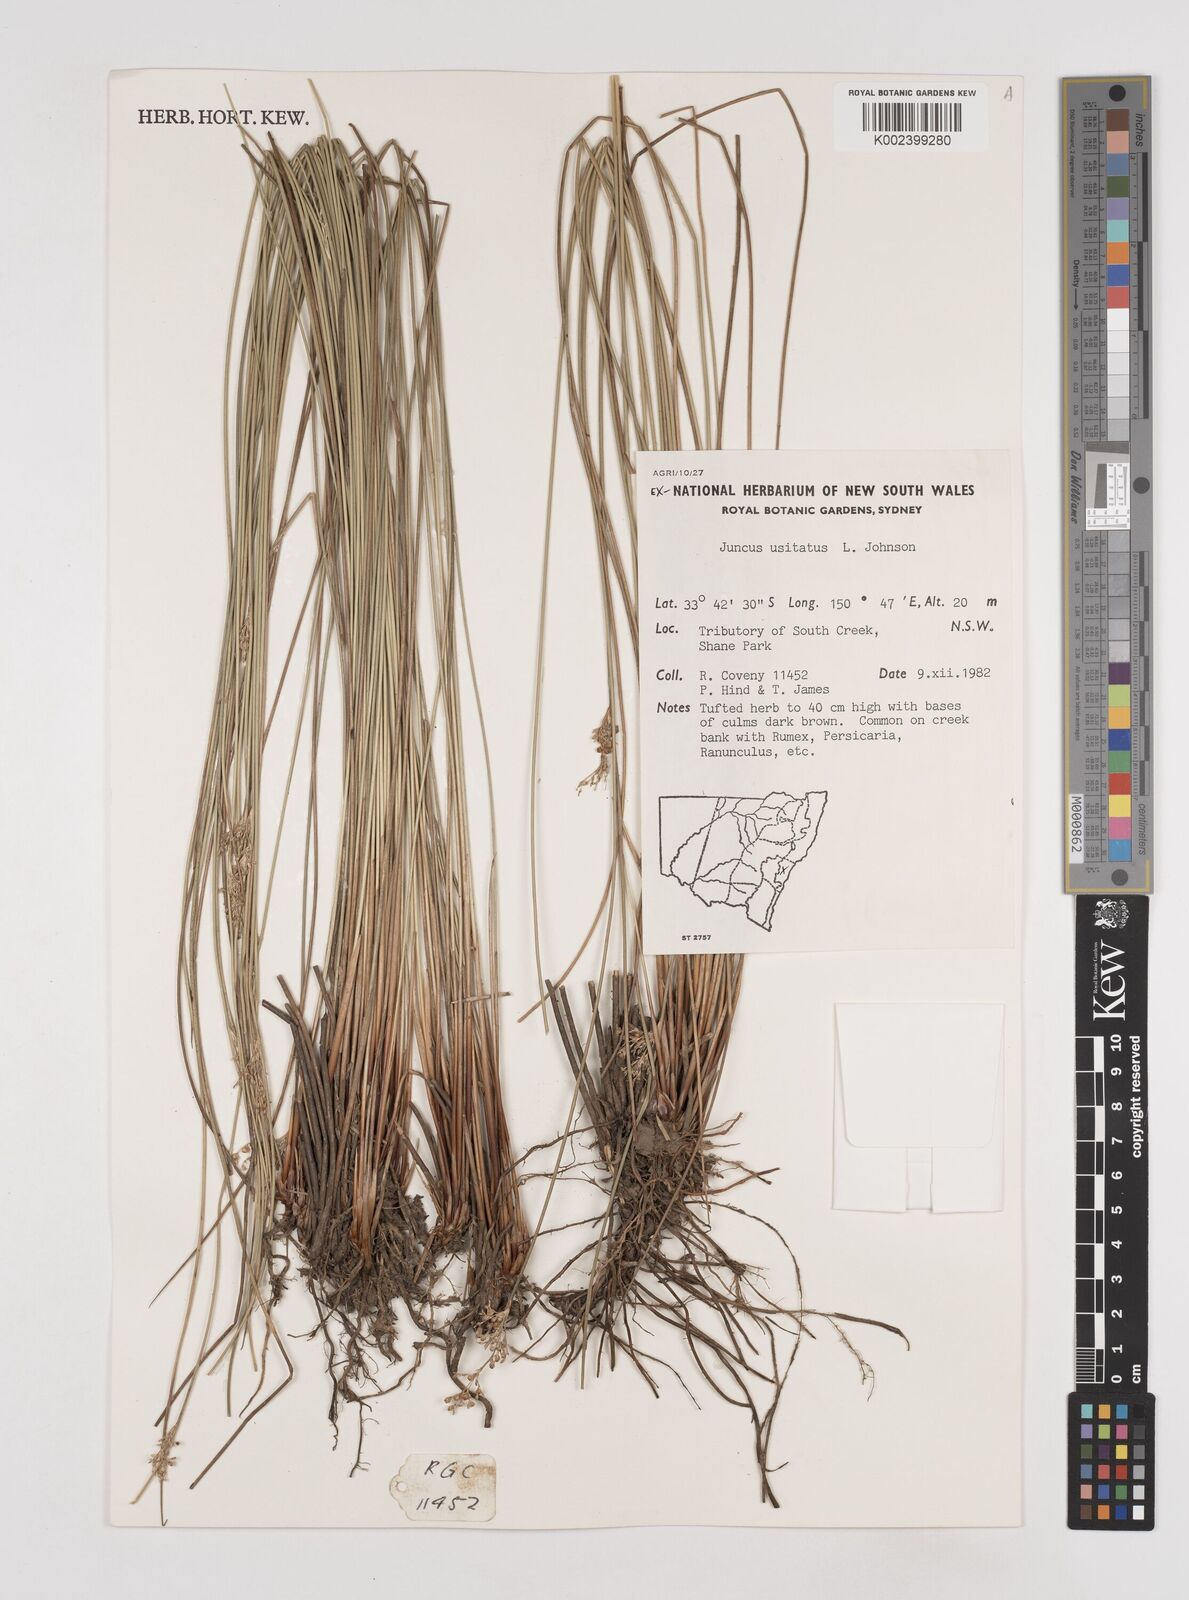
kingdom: Plantae
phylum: Tracheophyta
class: Liliopsida
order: Poales
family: Juncaceae
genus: Juncus
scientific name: Juncus usitatus
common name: Rush
